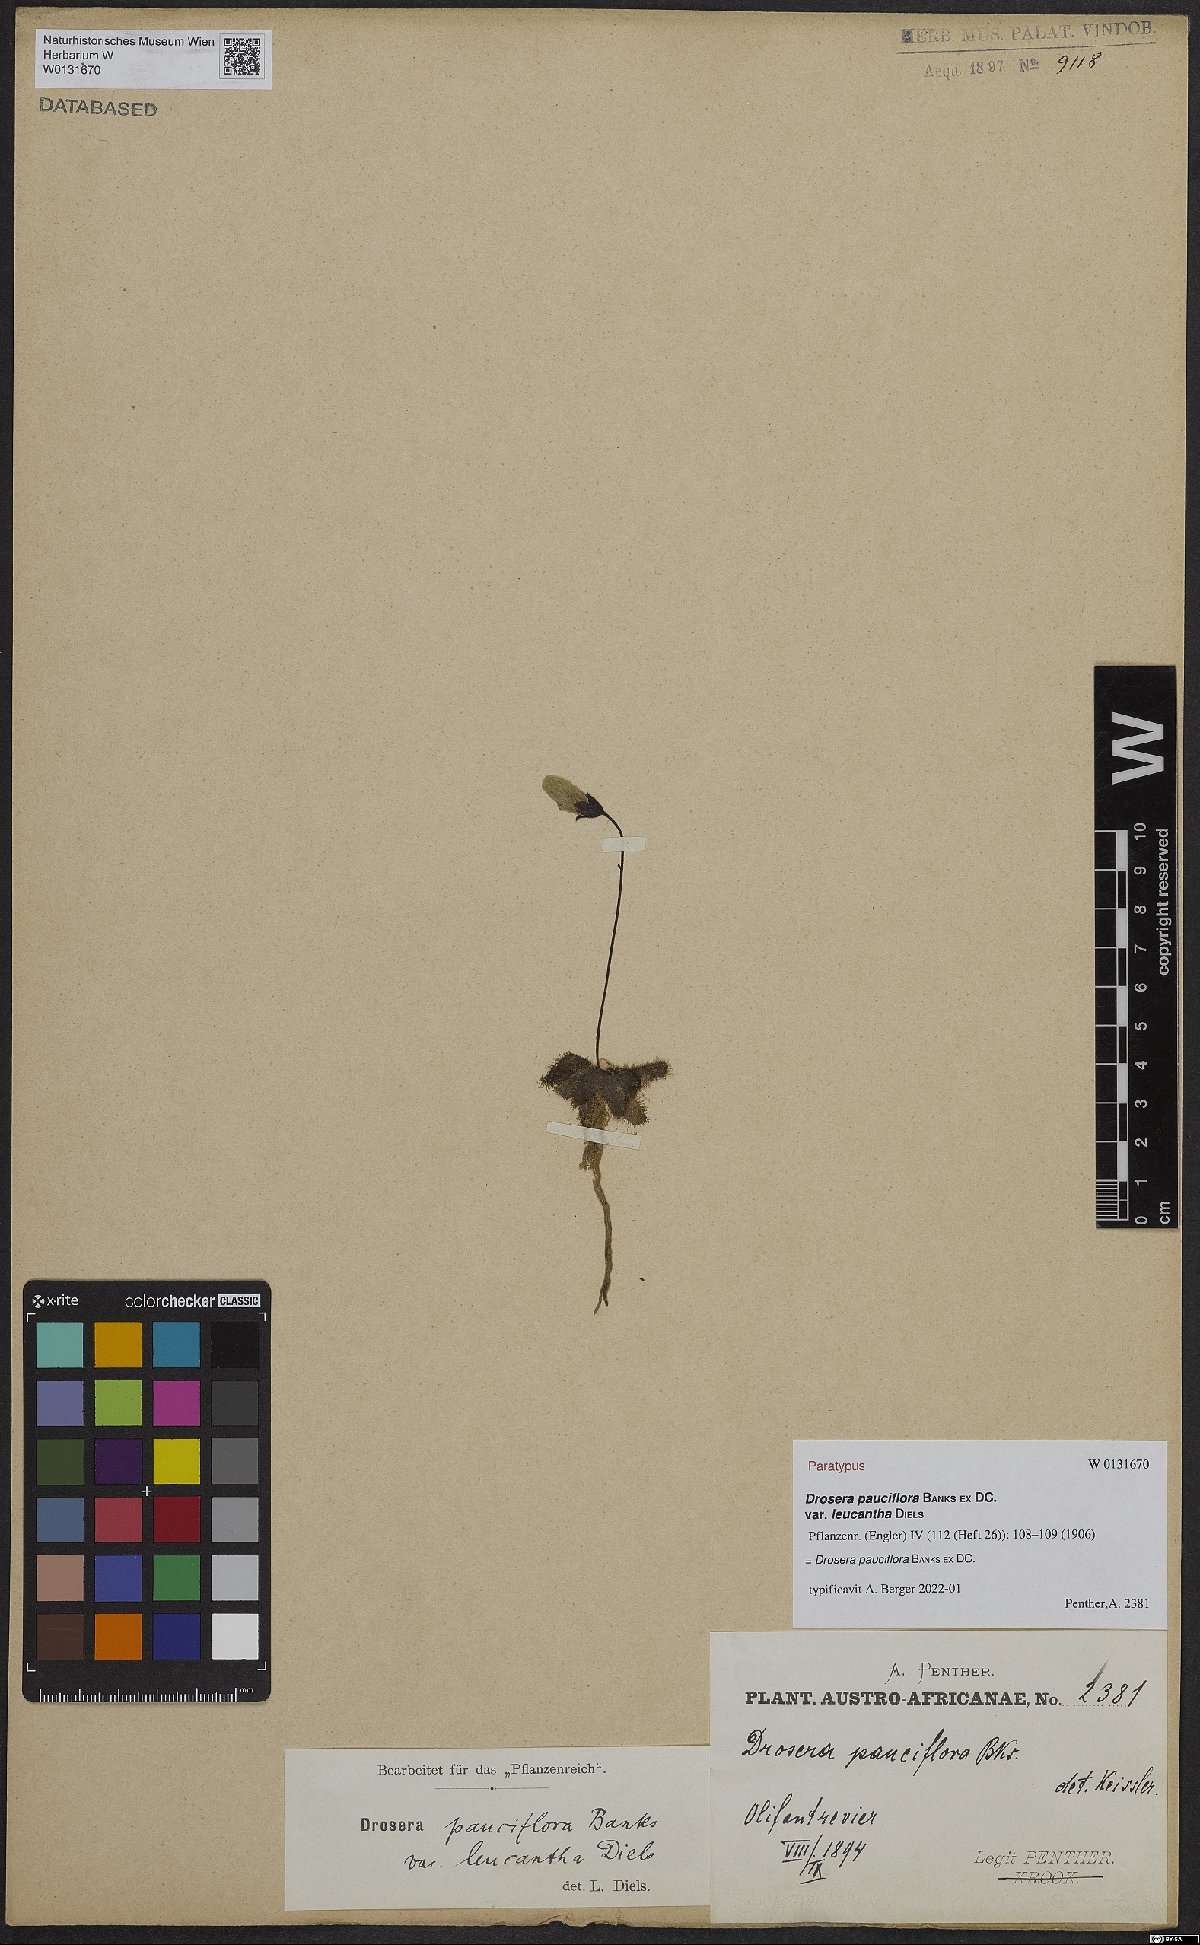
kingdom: Plantae
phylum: Tracheophyta
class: Magnoliopsida
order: Caryophyllales
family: Droseraceae
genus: Drosera
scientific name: Drosera pauciflora
